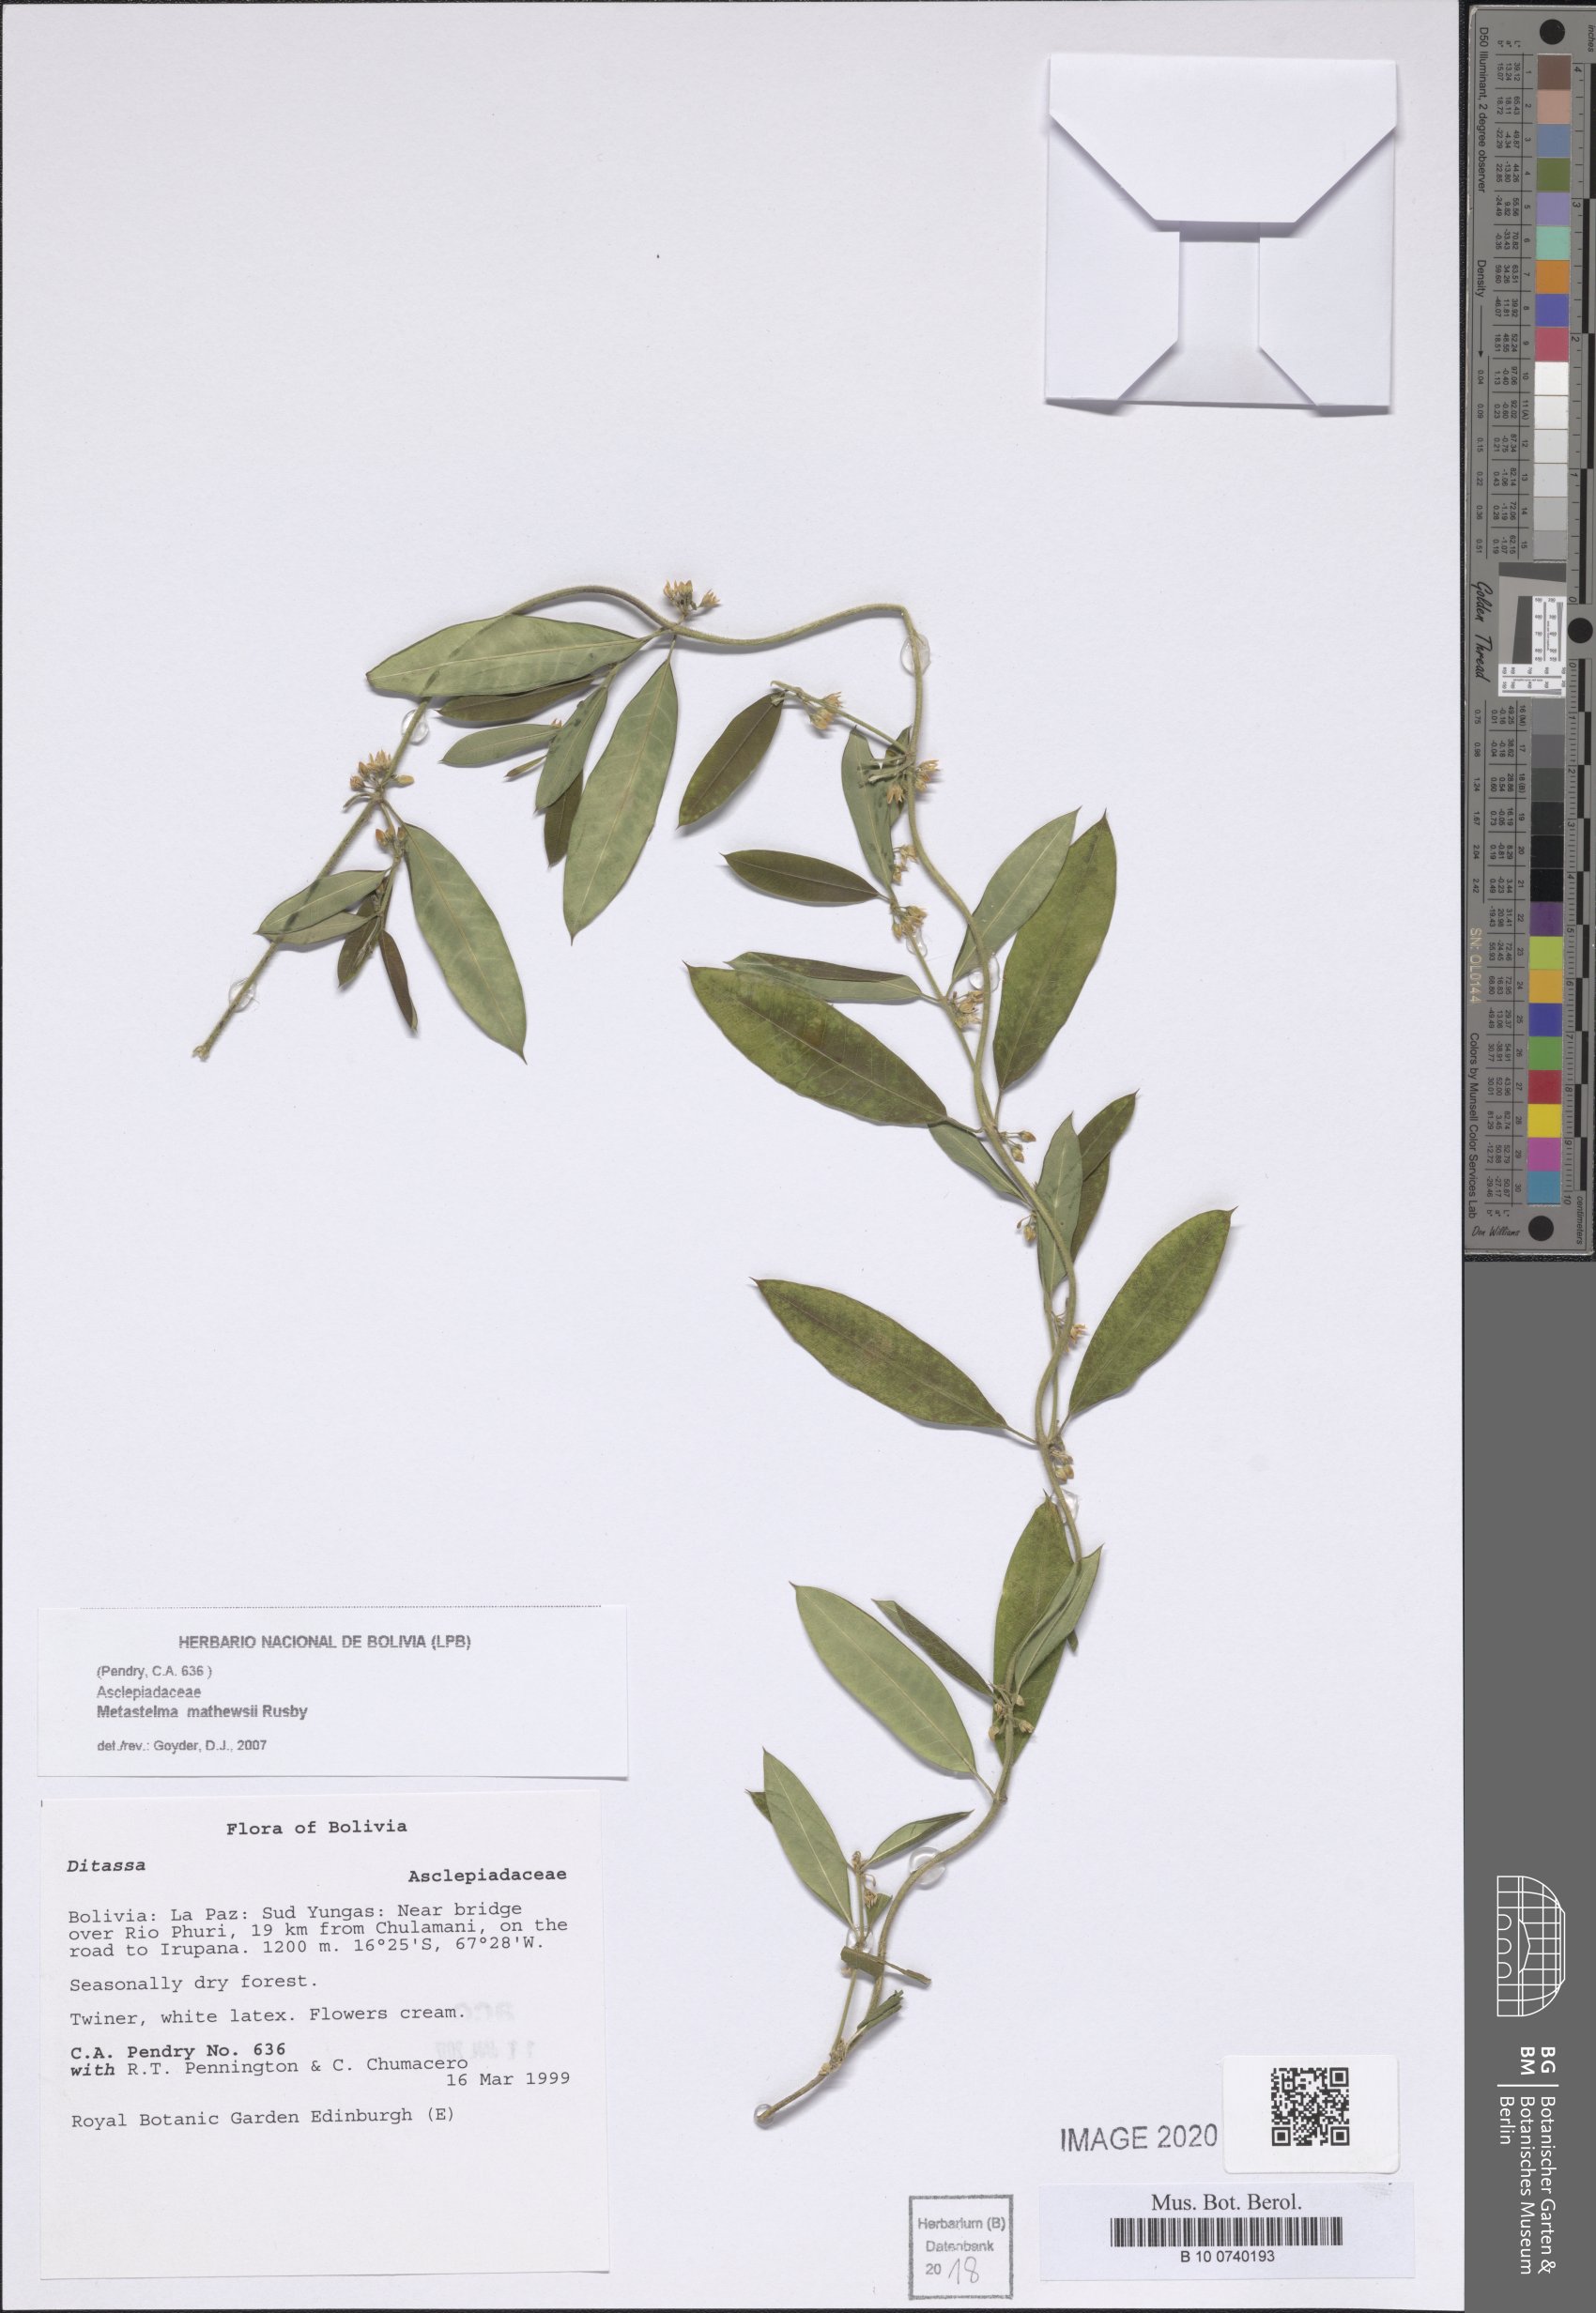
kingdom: Plantae
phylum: Tracheophyta
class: Magnoliopsida
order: Gentianales
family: Apocynaceae
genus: Metastelma
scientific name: Metastelma mathewsii
